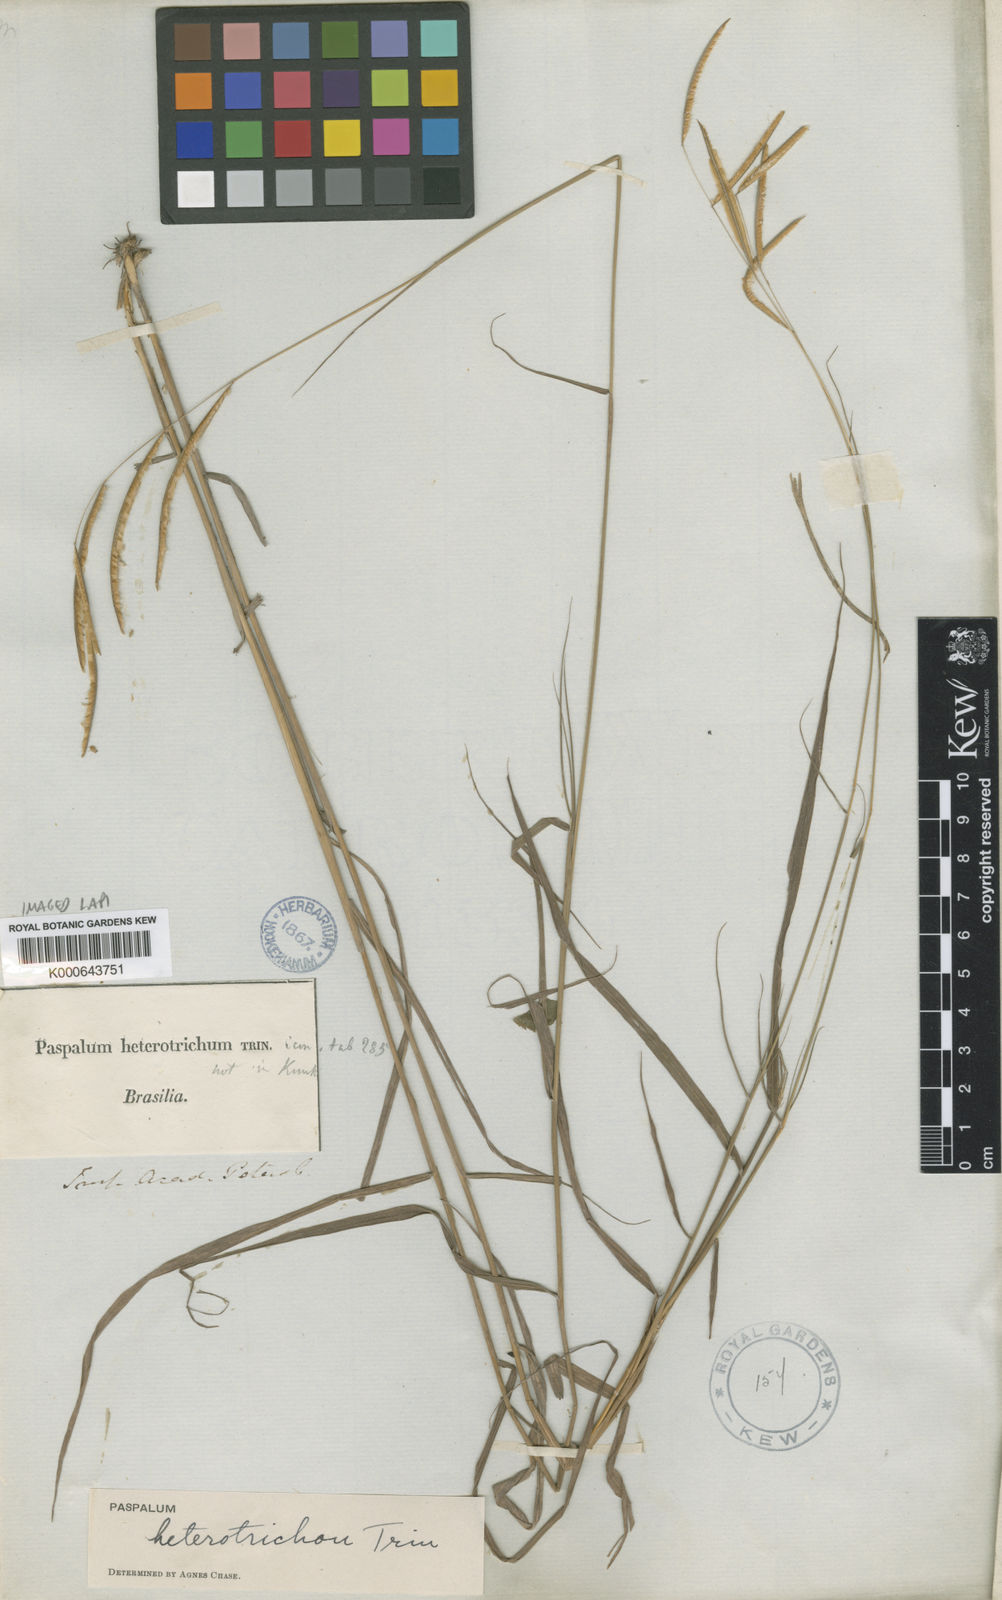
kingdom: Plantae
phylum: Tracheophyta
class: Liliopsida
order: Poales
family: Poaceae
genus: Paspalum
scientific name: Paspalum
